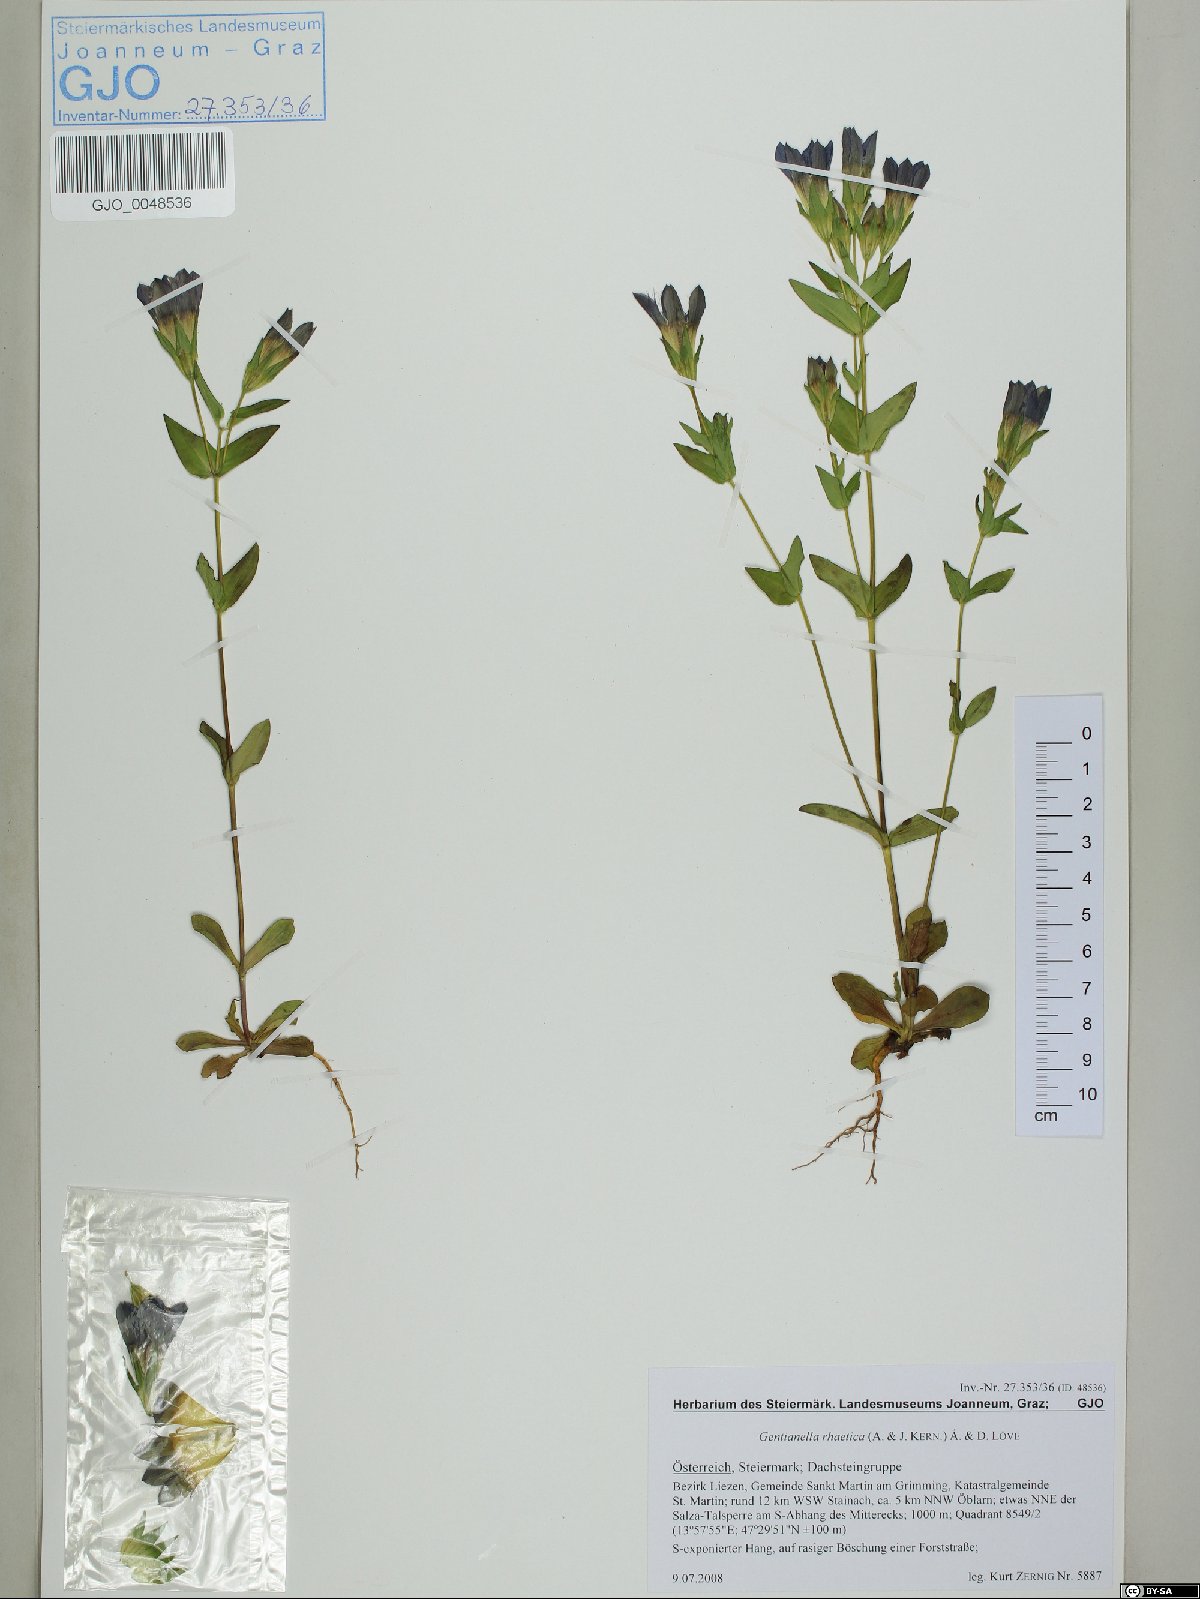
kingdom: Plantae
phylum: Tracheophyta
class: Magnoliopsida
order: Gentianales
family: Gentianaceae
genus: Gentianella
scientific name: Gentianella rhaetica
